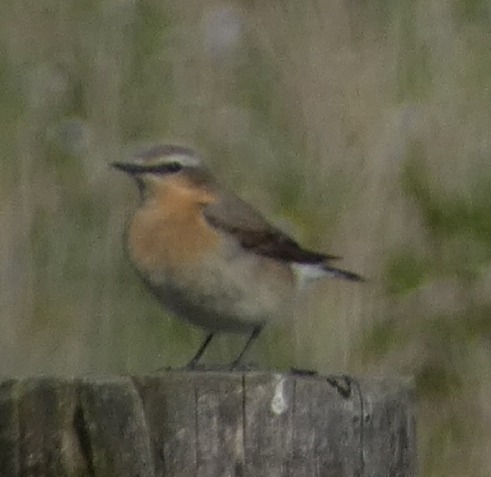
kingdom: Animalia
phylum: Chordata
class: Aves
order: Passeriformes
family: Muscicapidae
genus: Oenanthe
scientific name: Oenanthe oenanthe
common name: Stenpikker
